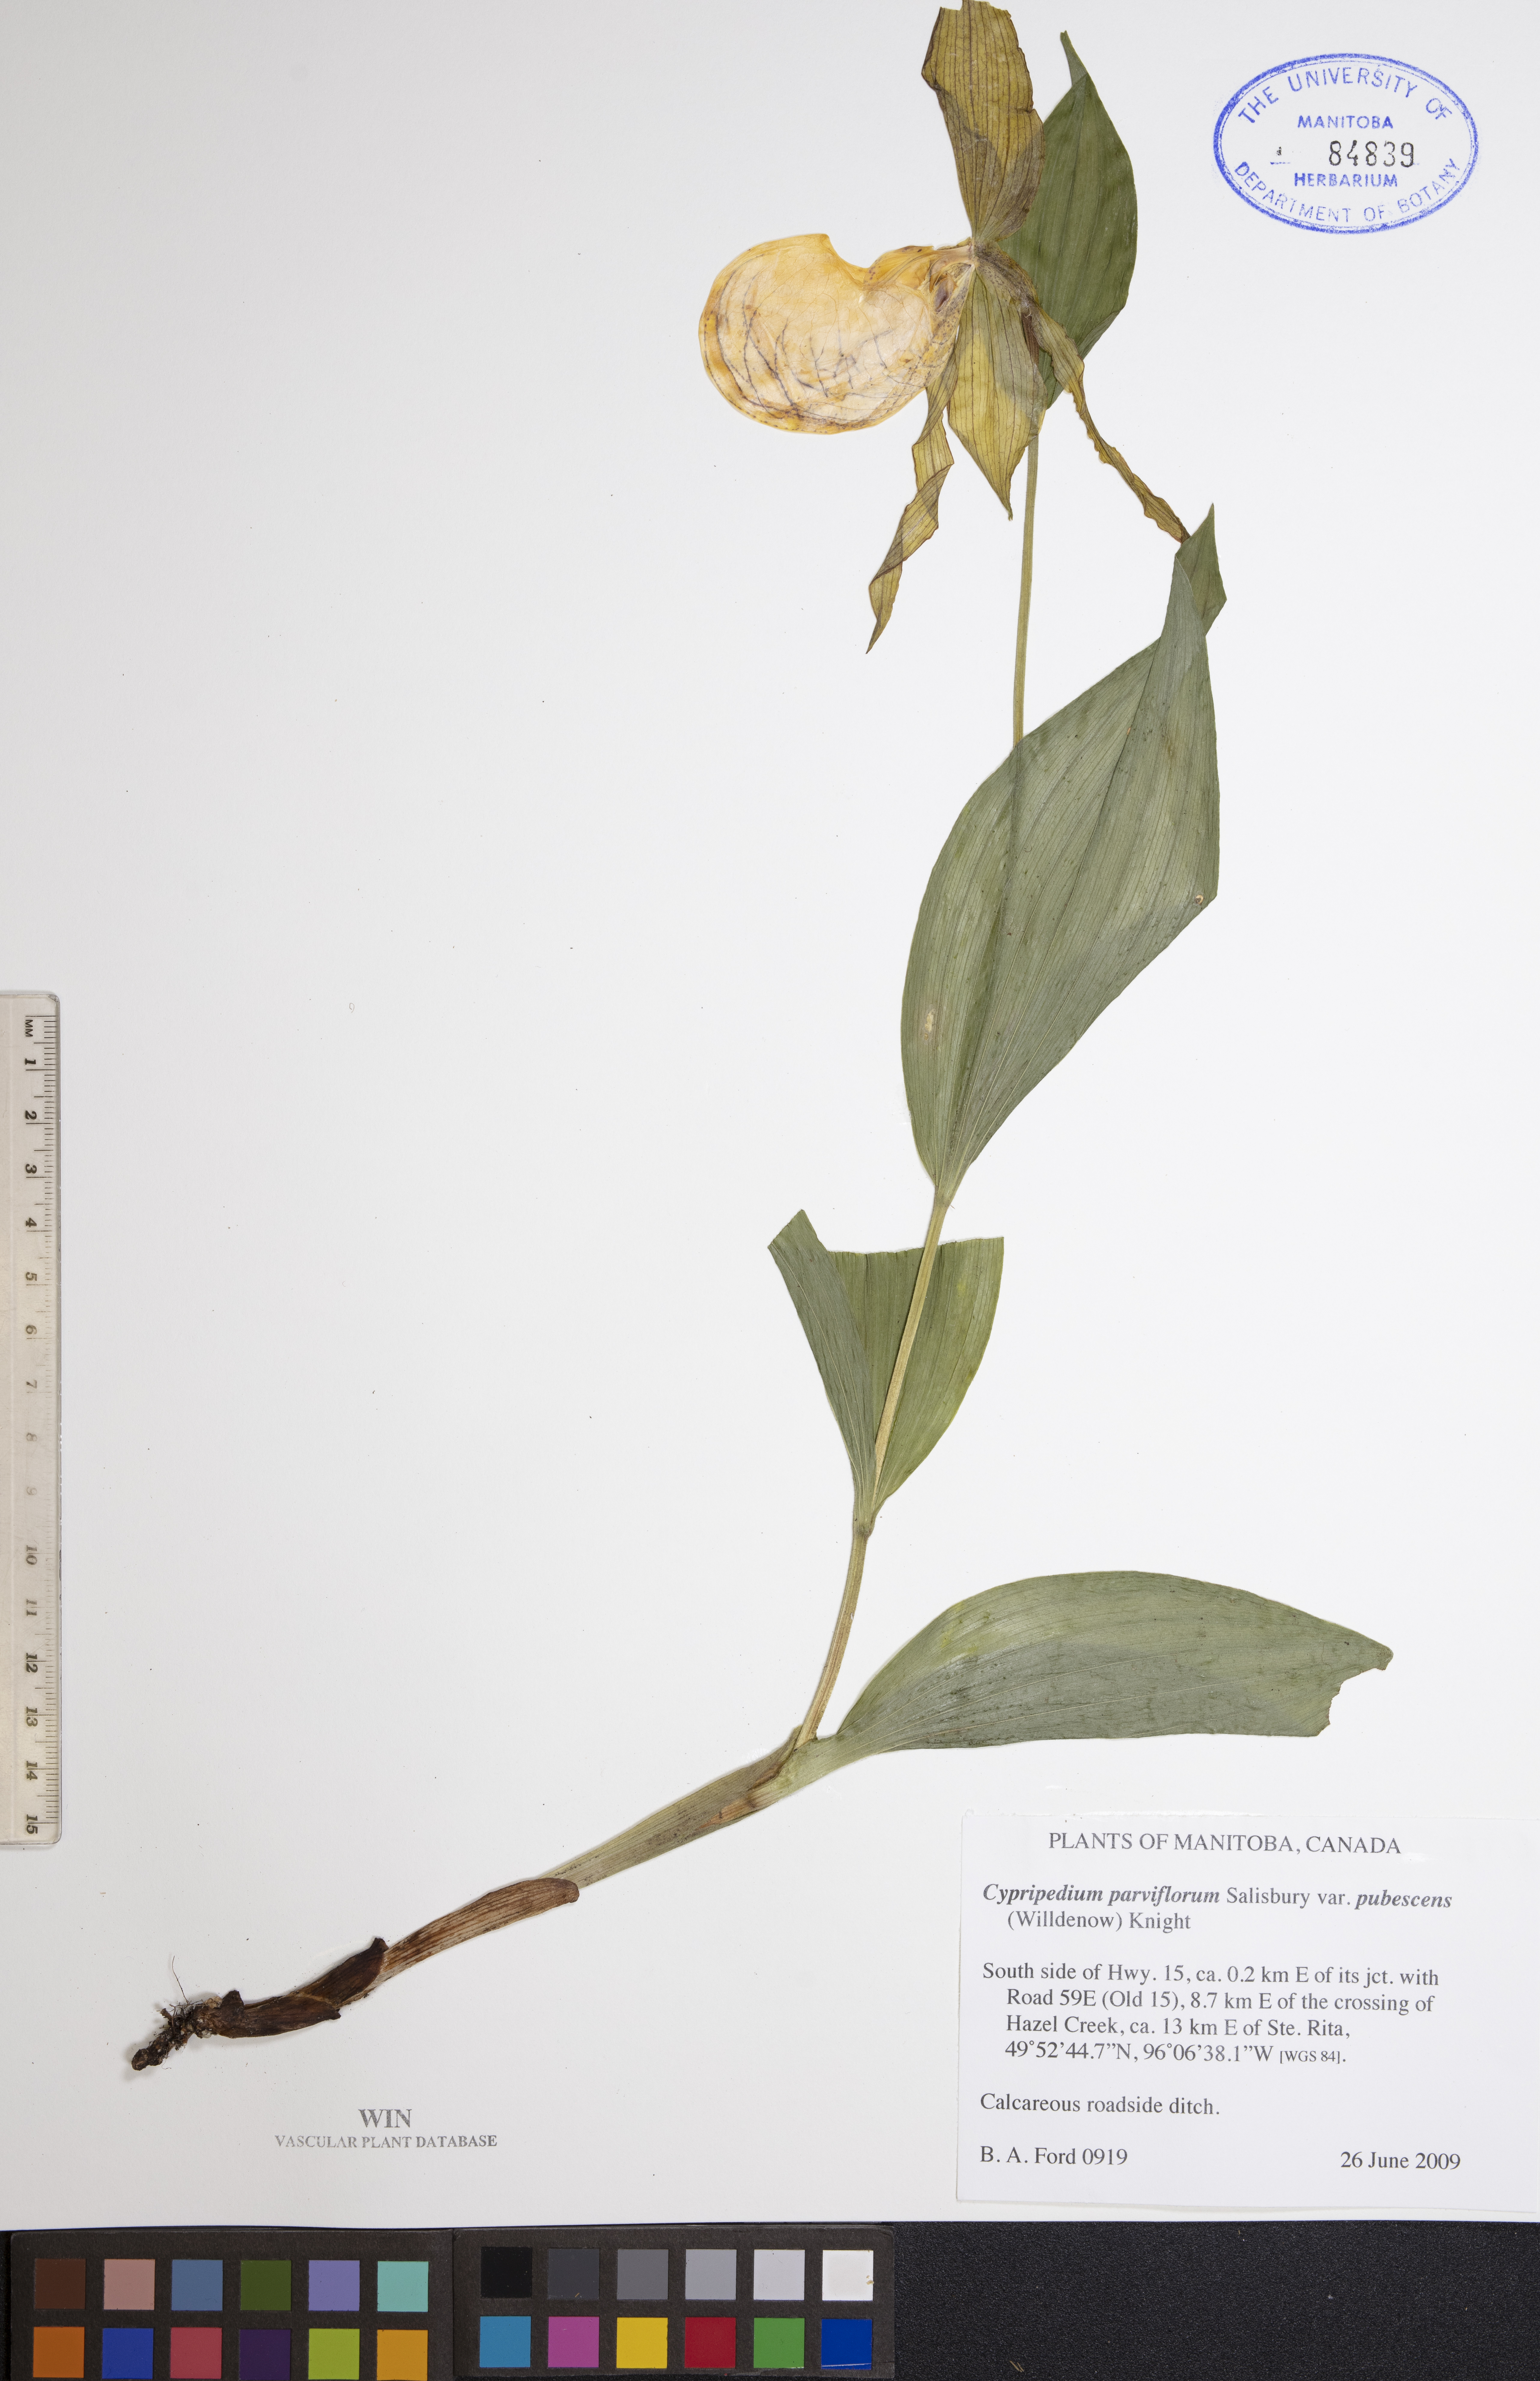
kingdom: Plantae
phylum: Tracheophyta
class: Liliopsida
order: Asparagales
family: Orchidaceae
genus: Cypripedium
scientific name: Cypripedium parviflorum
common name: American yellow lady's-slipper
